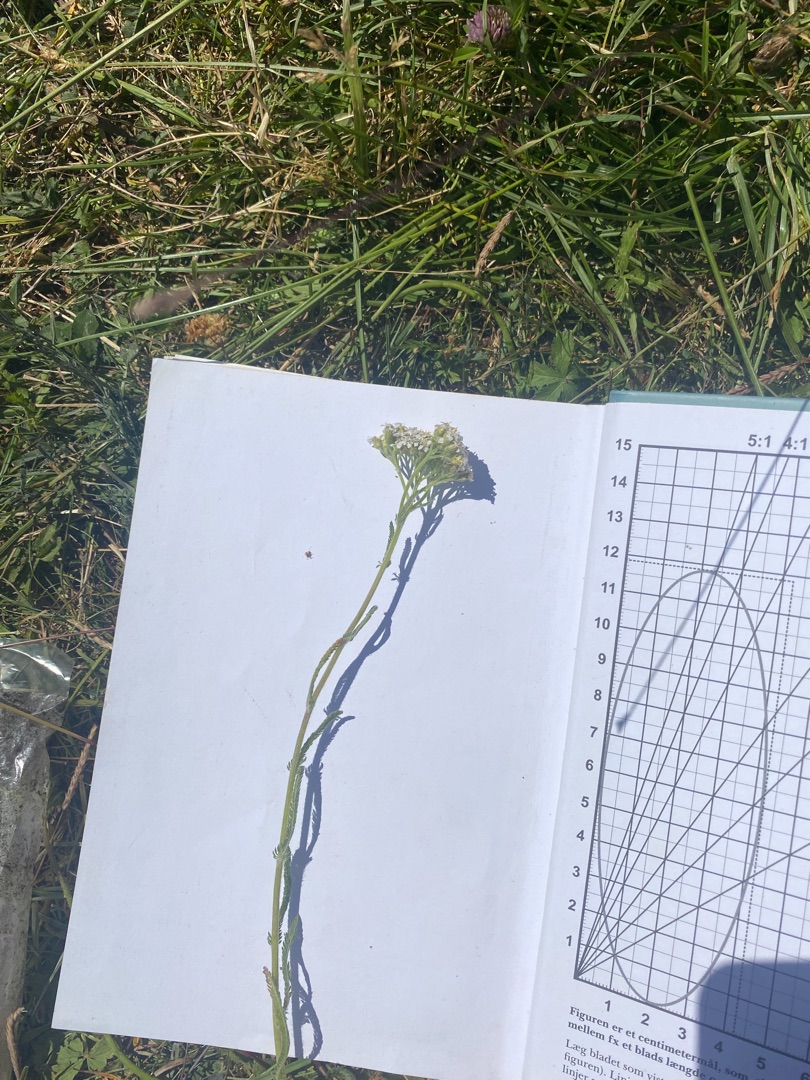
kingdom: Plantae
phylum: Tracheophyta
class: Magnoliopsida
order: Asterales
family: Asteraceae
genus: Achillea
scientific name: Achillea millefolium
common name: Almindelig røllike
